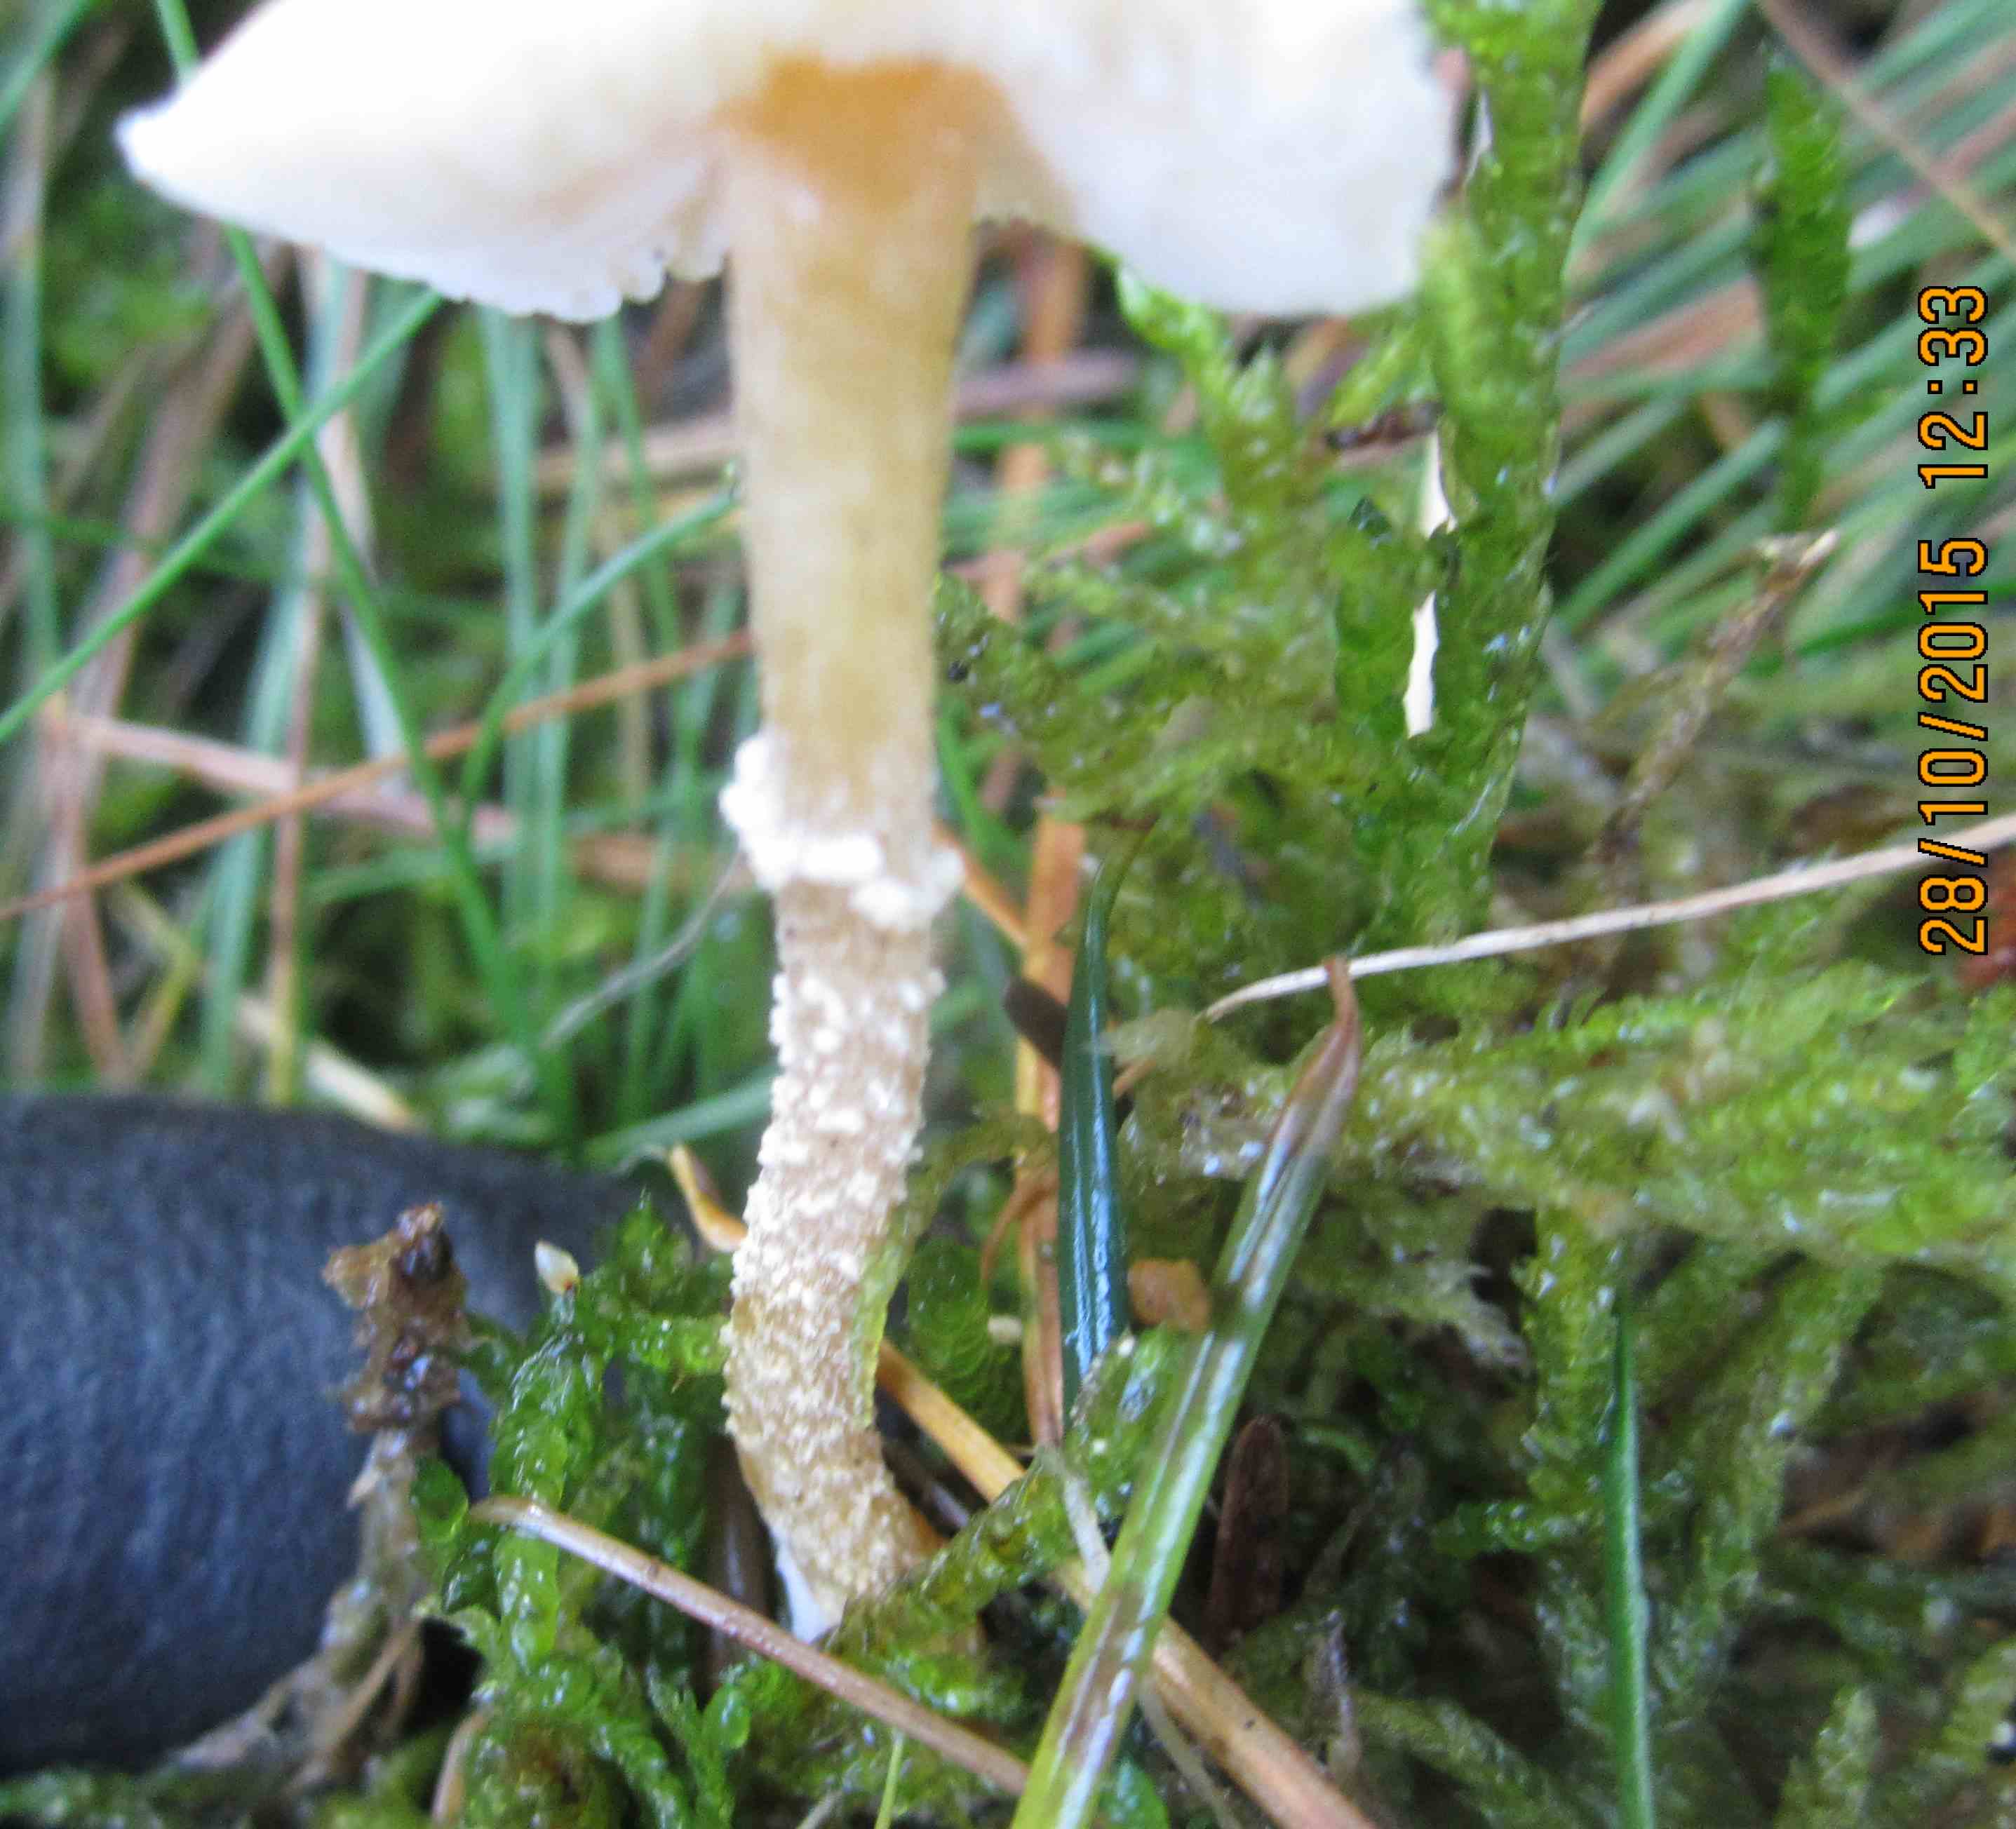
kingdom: Fungi
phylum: Basidiomycota
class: Agaricomycetes
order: Agaricales
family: Tricholomataceae
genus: Cystoderma
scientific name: Cystoderma amianthinum
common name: okkergul grynhat
